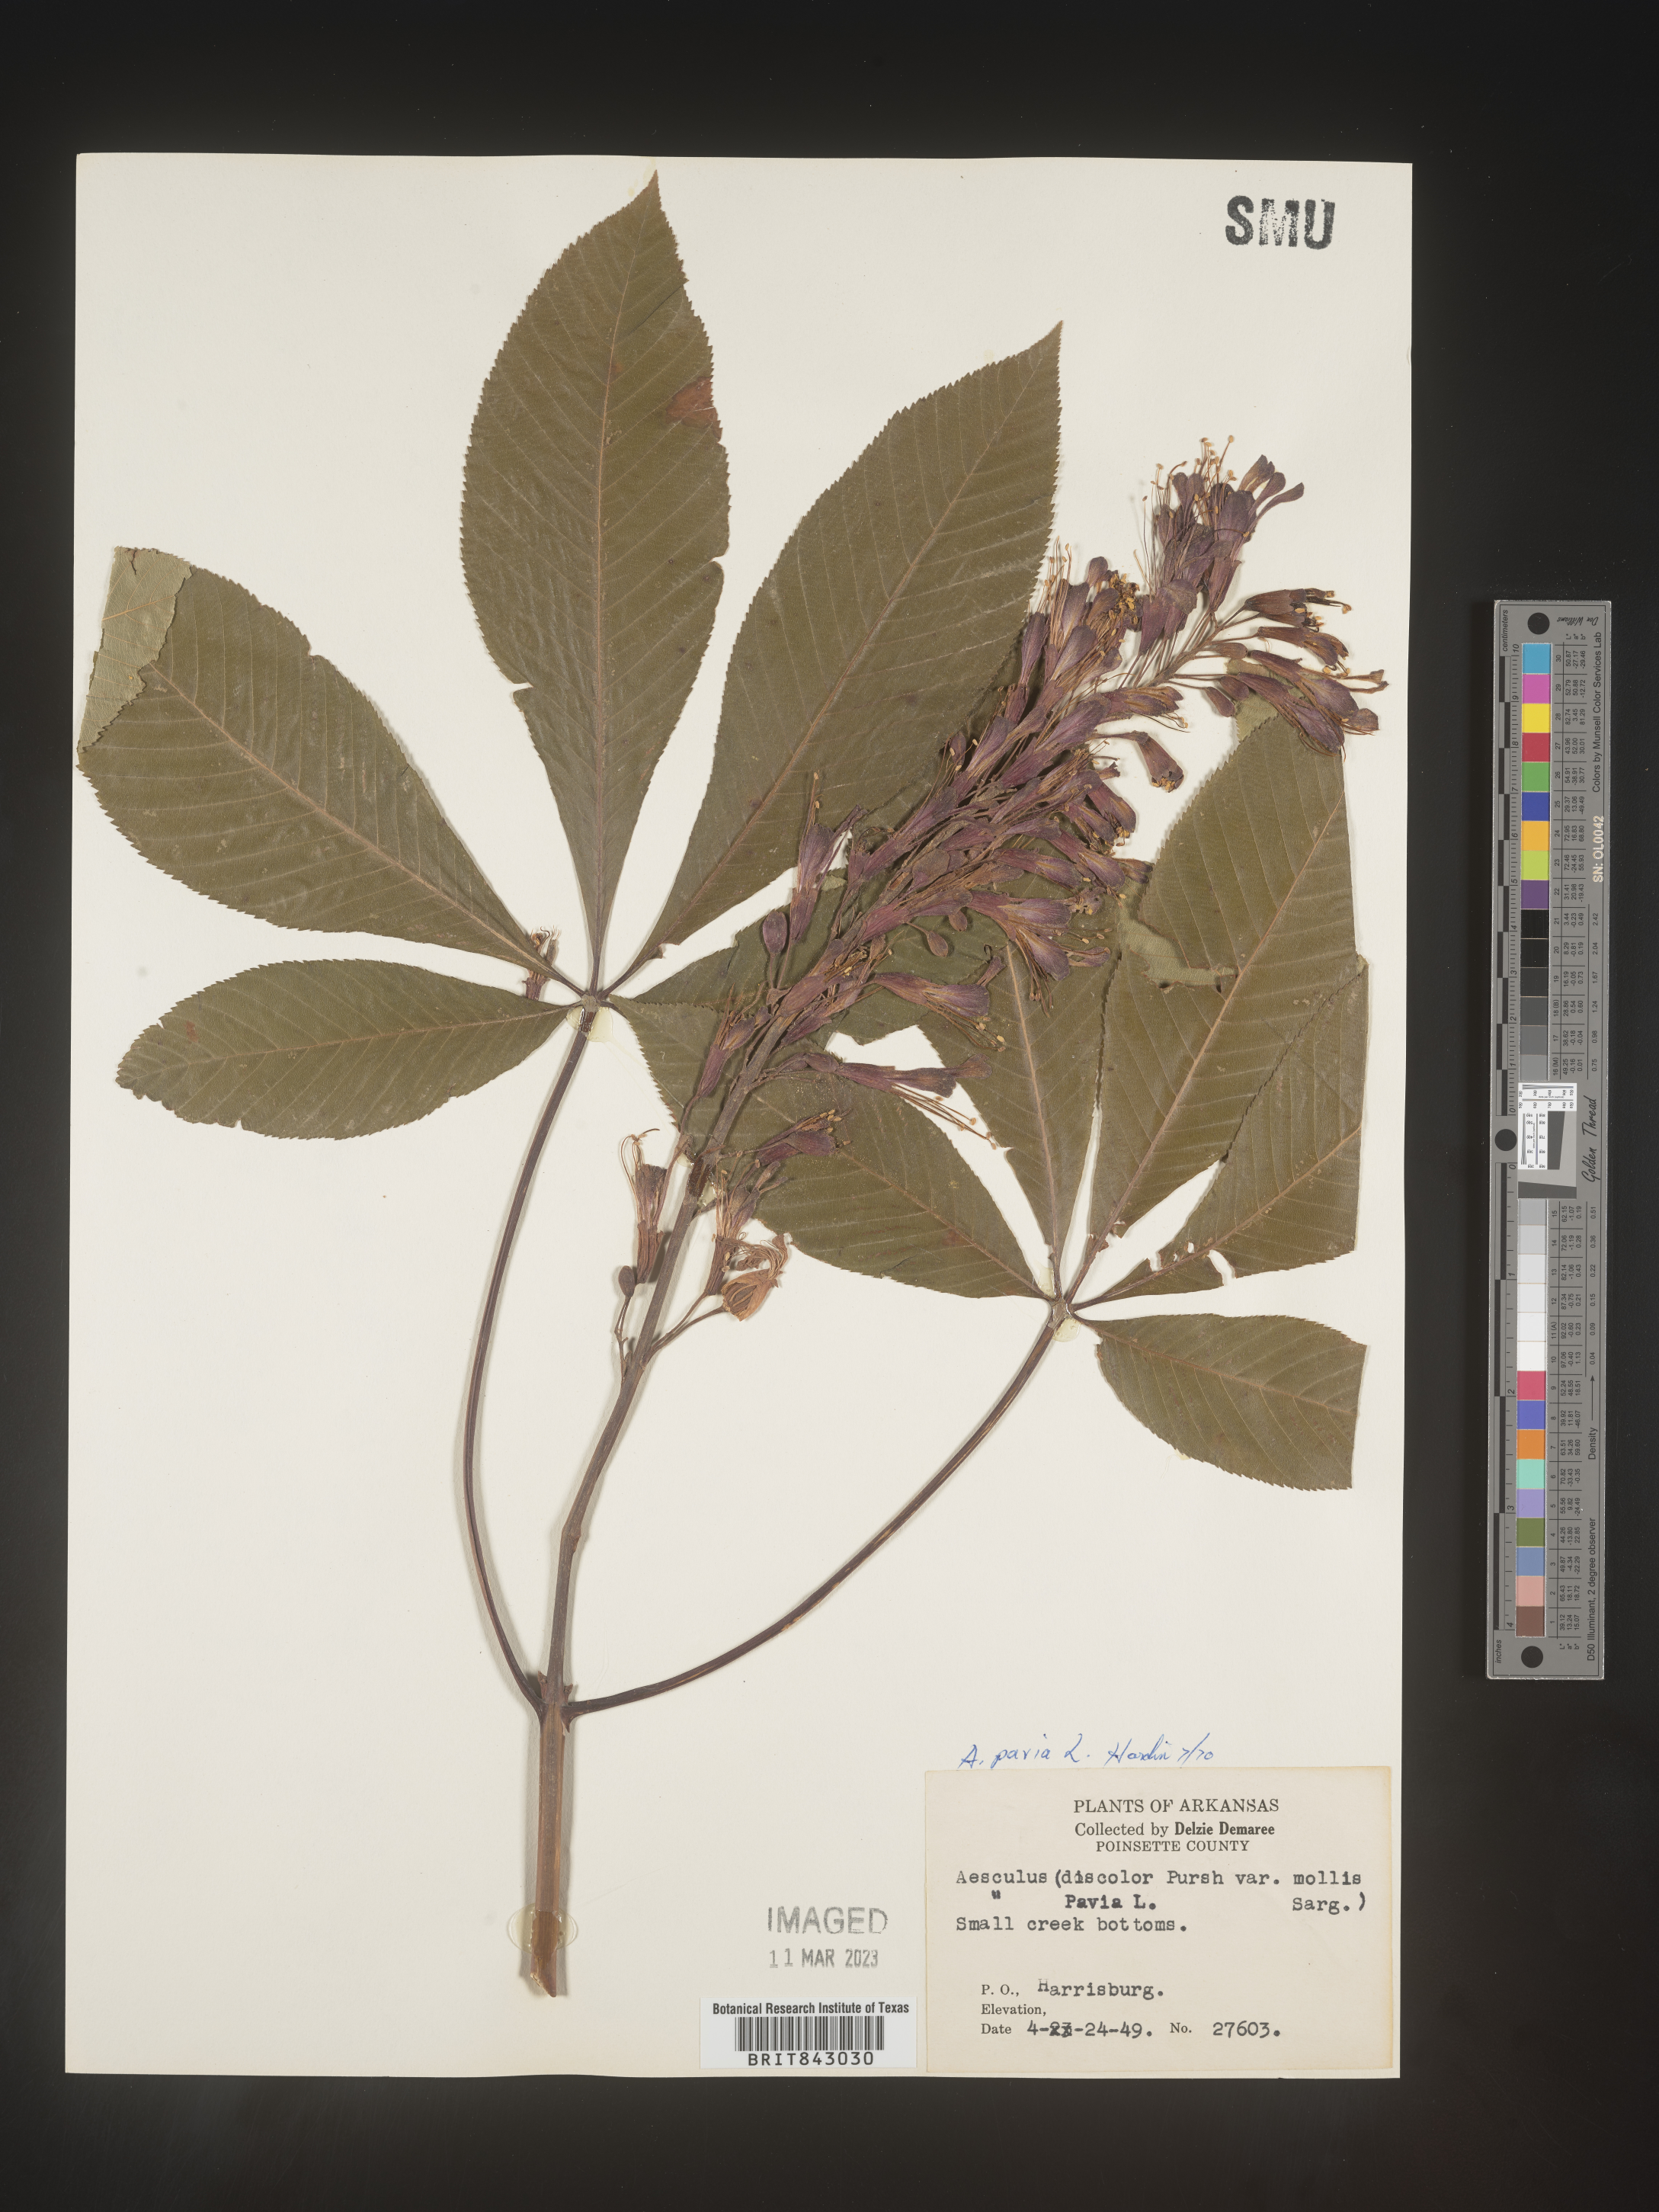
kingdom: Plantae
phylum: Tracheophyta
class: Magnoliopsida
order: Sapindales
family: Sapindaceae
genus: Aesculus
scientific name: Aesculus pavia
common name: Red buckeye
